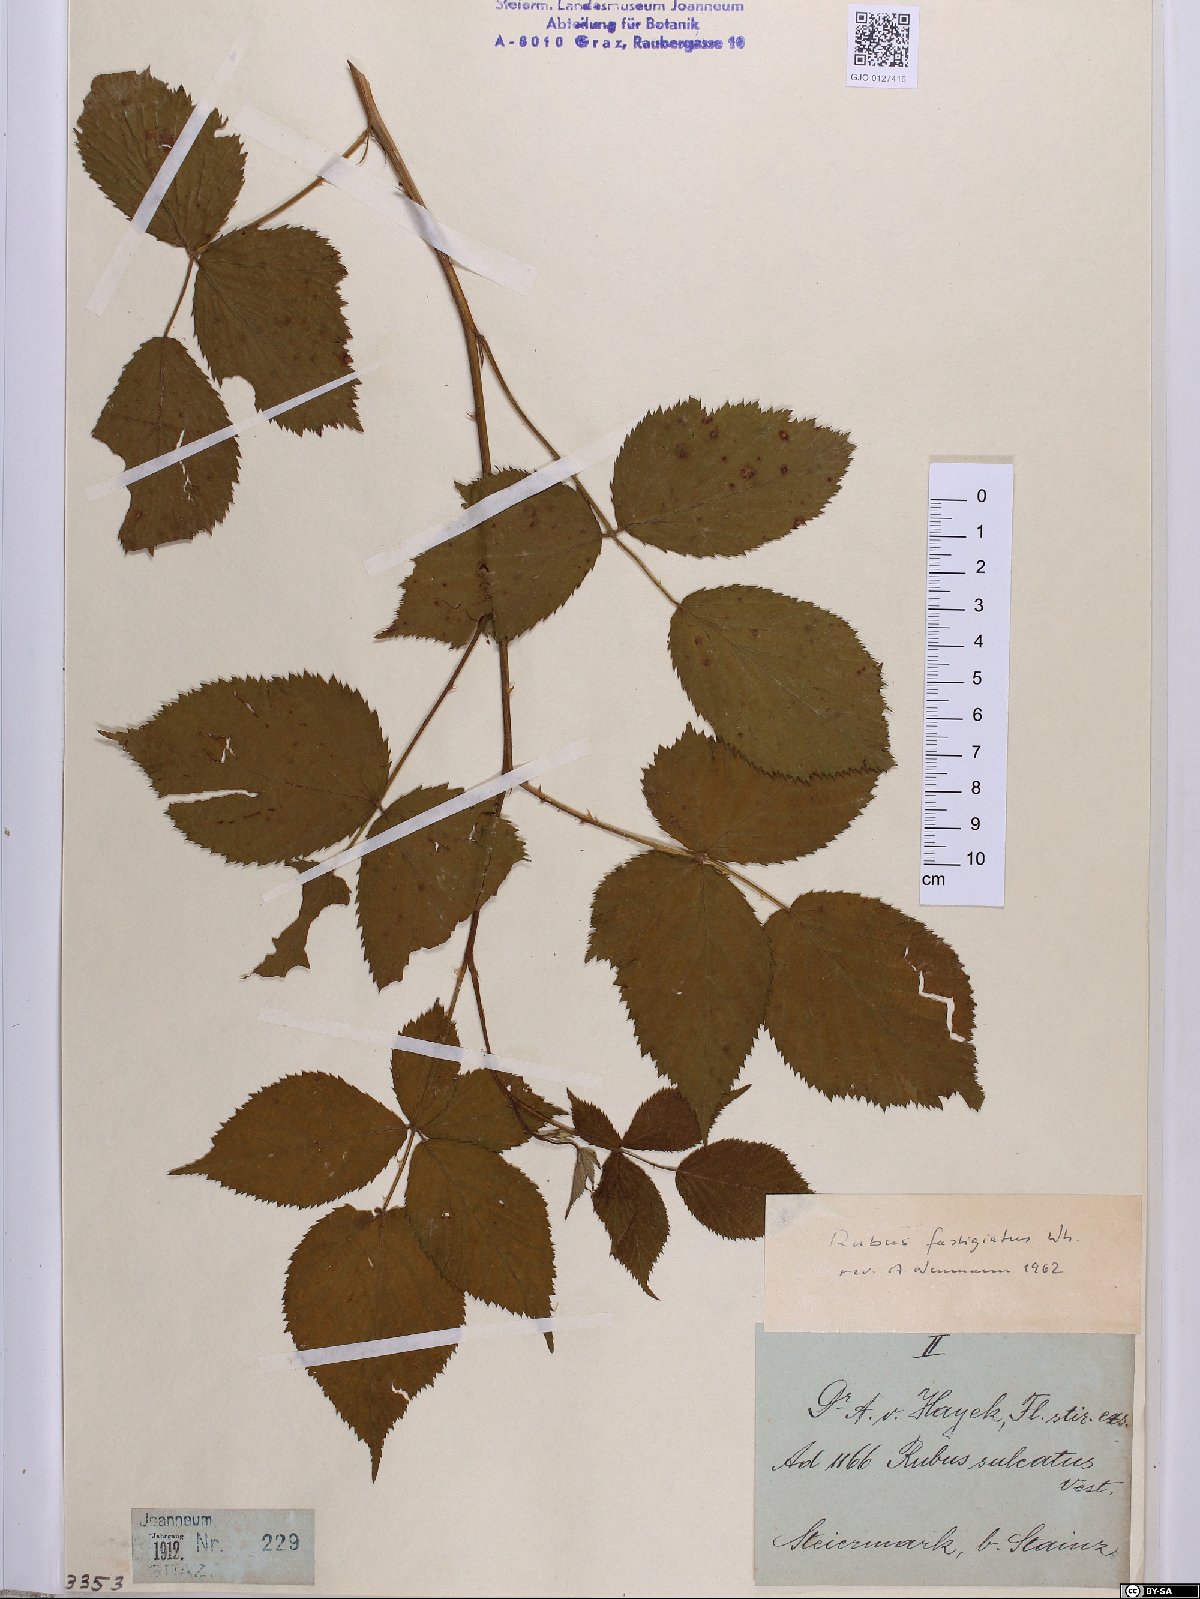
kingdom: Plantae
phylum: Tracheophyta
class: Magnoliopsida
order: Rosales
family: Rosaceae
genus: Rubus
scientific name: Rubus polonicus
